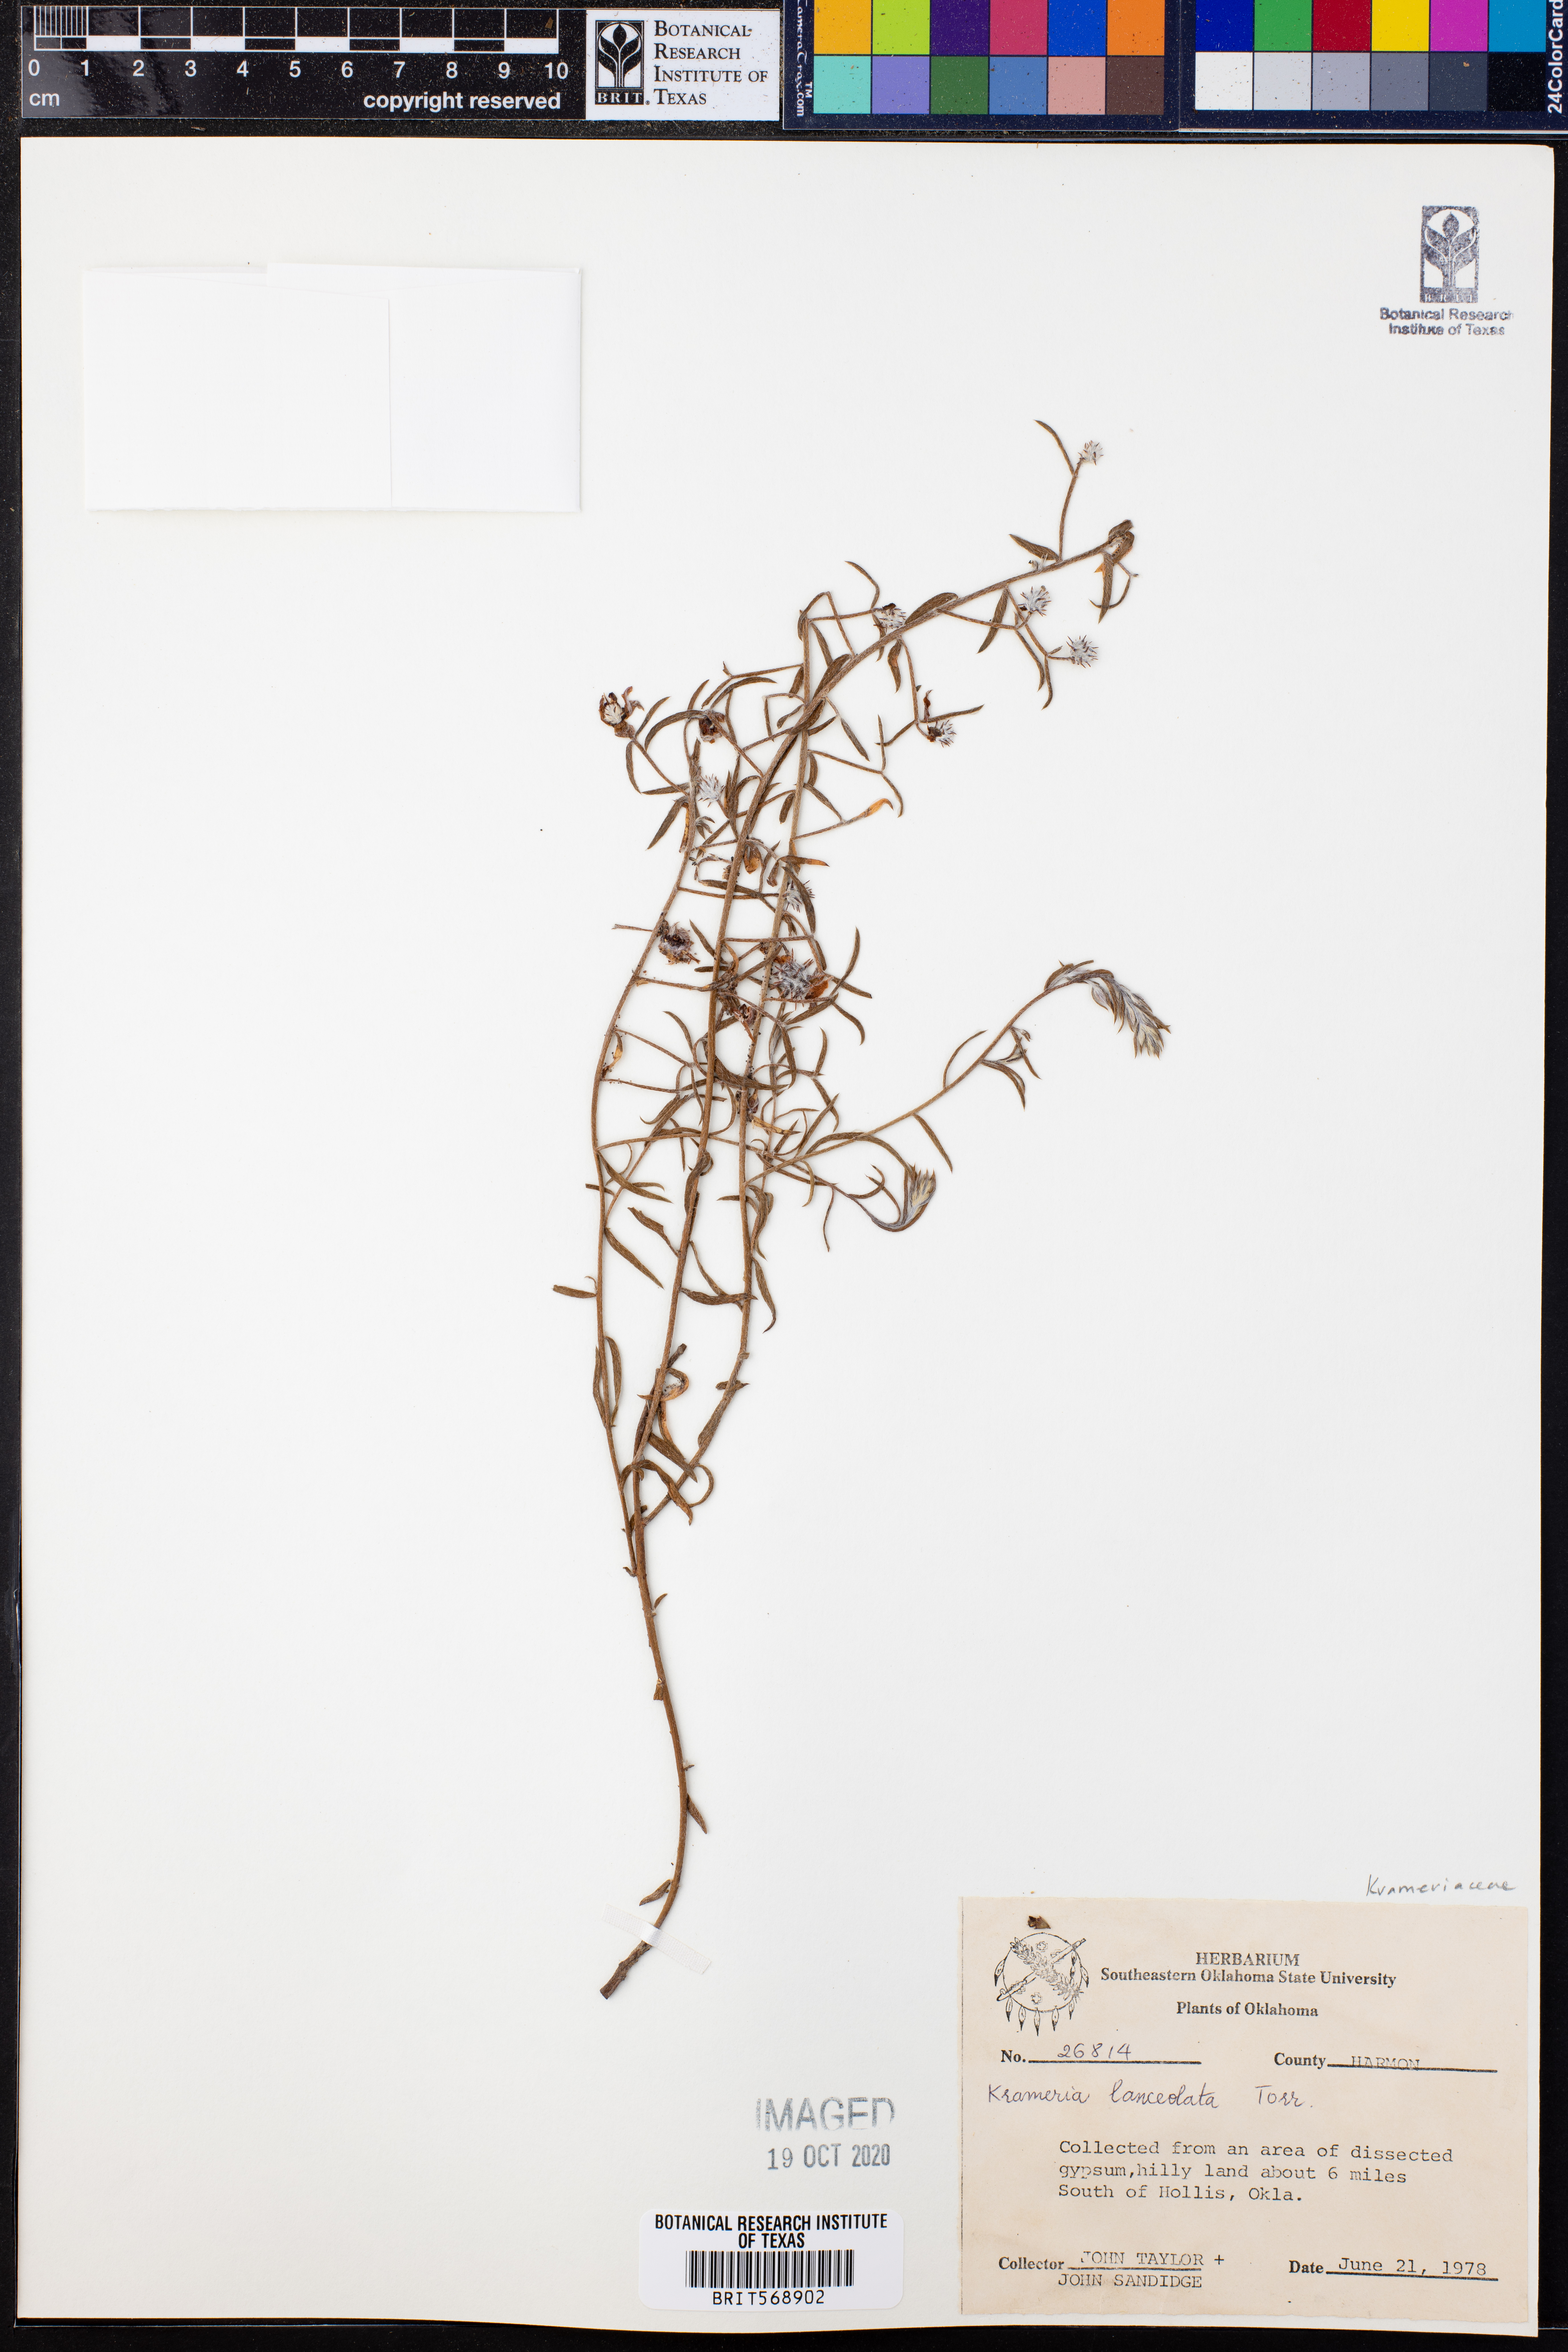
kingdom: Plantae
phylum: Tracheophyta
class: Magnoliopsida
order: Zygophyllales
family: Krameriaceae
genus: Krameria
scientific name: Krameria lanceolata
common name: Ratany
